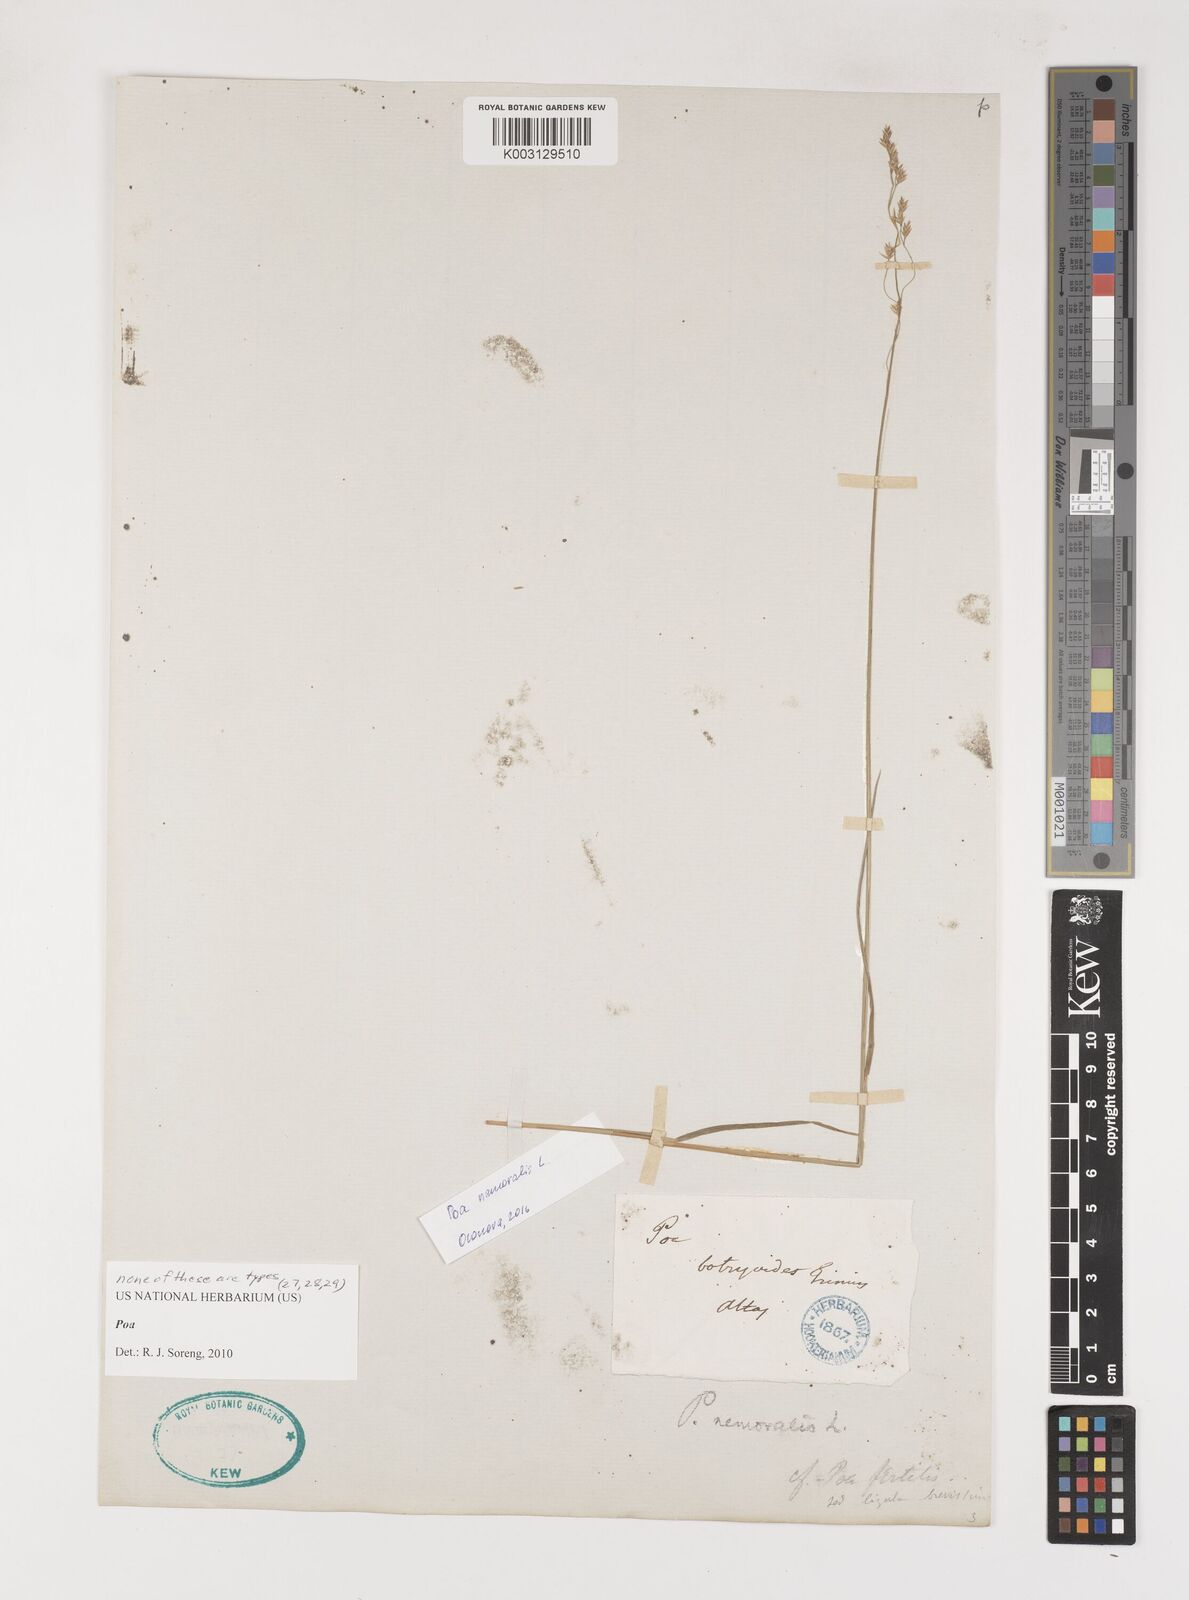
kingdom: Plantae
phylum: Tracheophyta
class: Liliopsida
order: Poales
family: Poaceae
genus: Poa
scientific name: Poa
